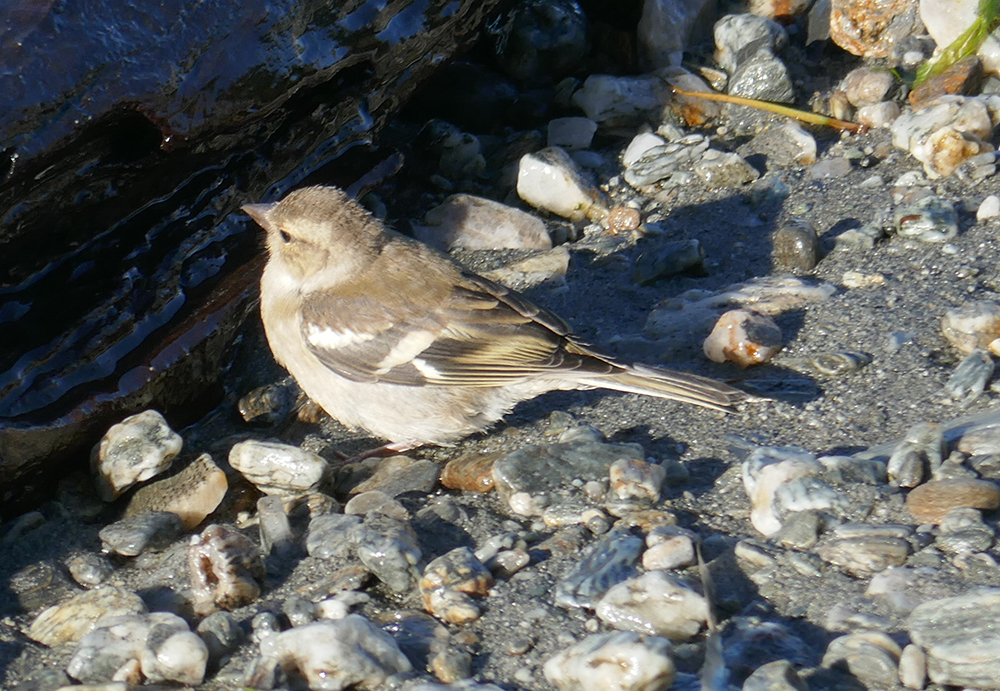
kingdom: Animalia
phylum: Chordata
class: Aves
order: Passeriformes
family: Fringillidae
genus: Fringilla
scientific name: Fringilla coelebs
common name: Common chaffinch
